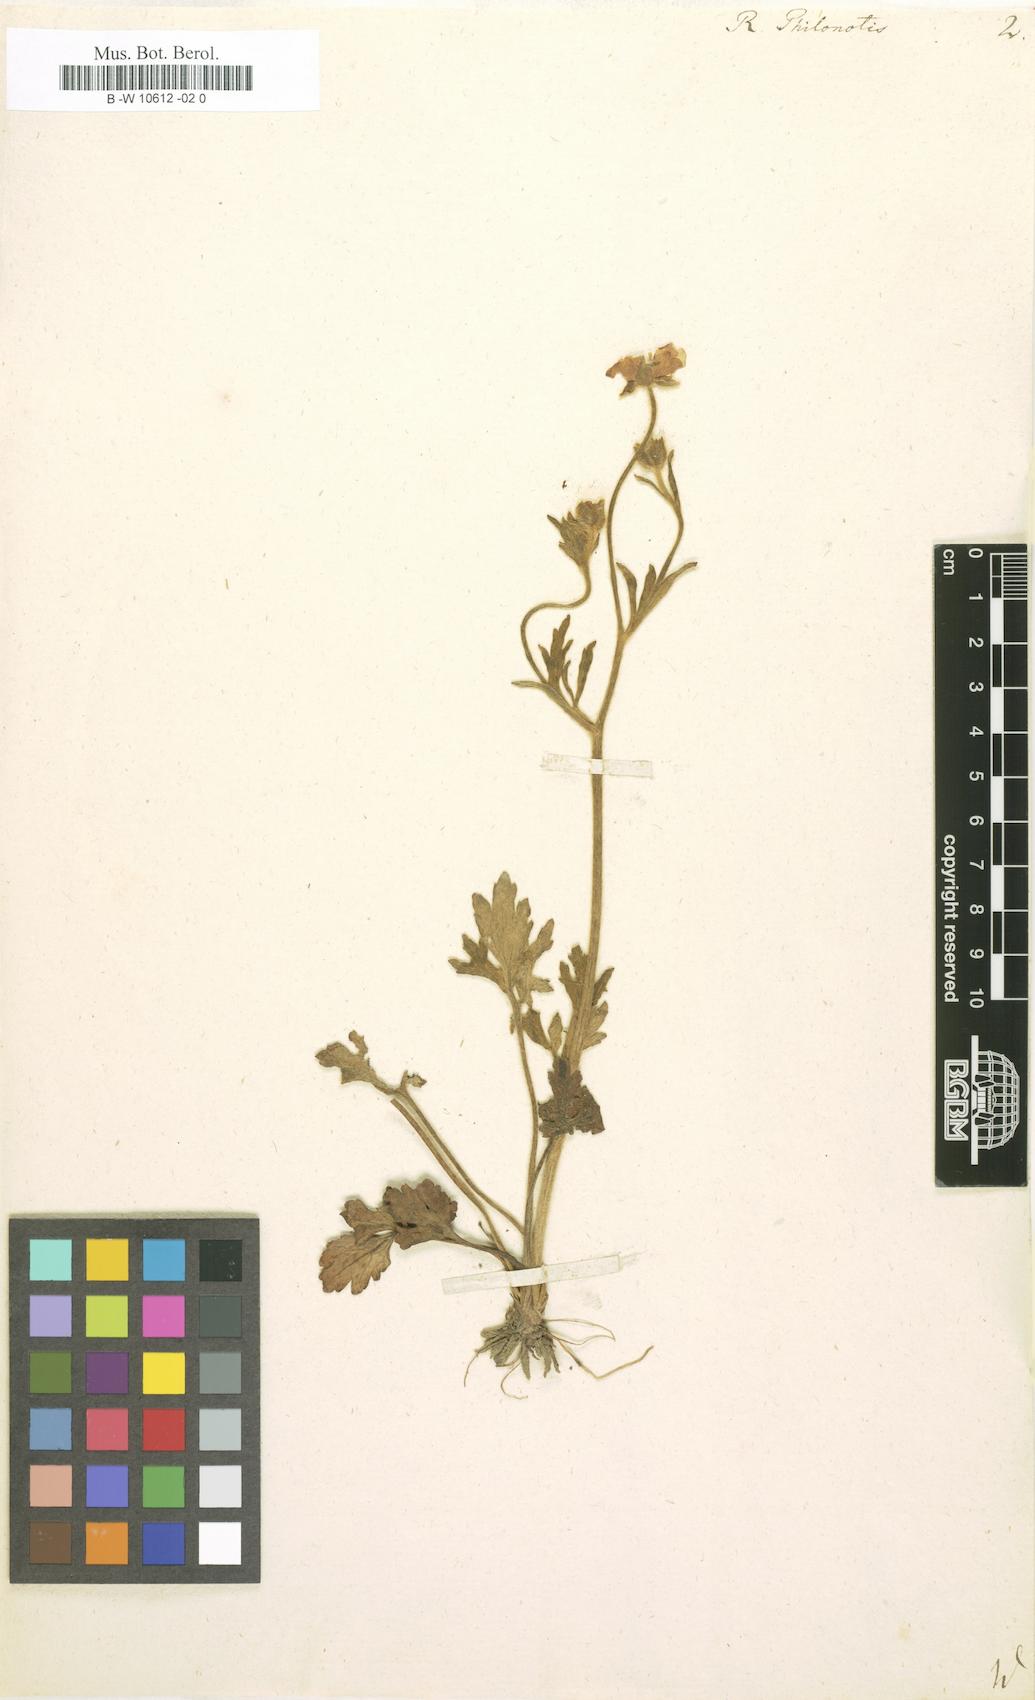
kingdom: Plantae
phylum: Tracheophyta
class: Magnoliopsida
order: Ranunculales
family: Ranunculaceae
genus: Ranunculus
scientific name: Ranunculus
